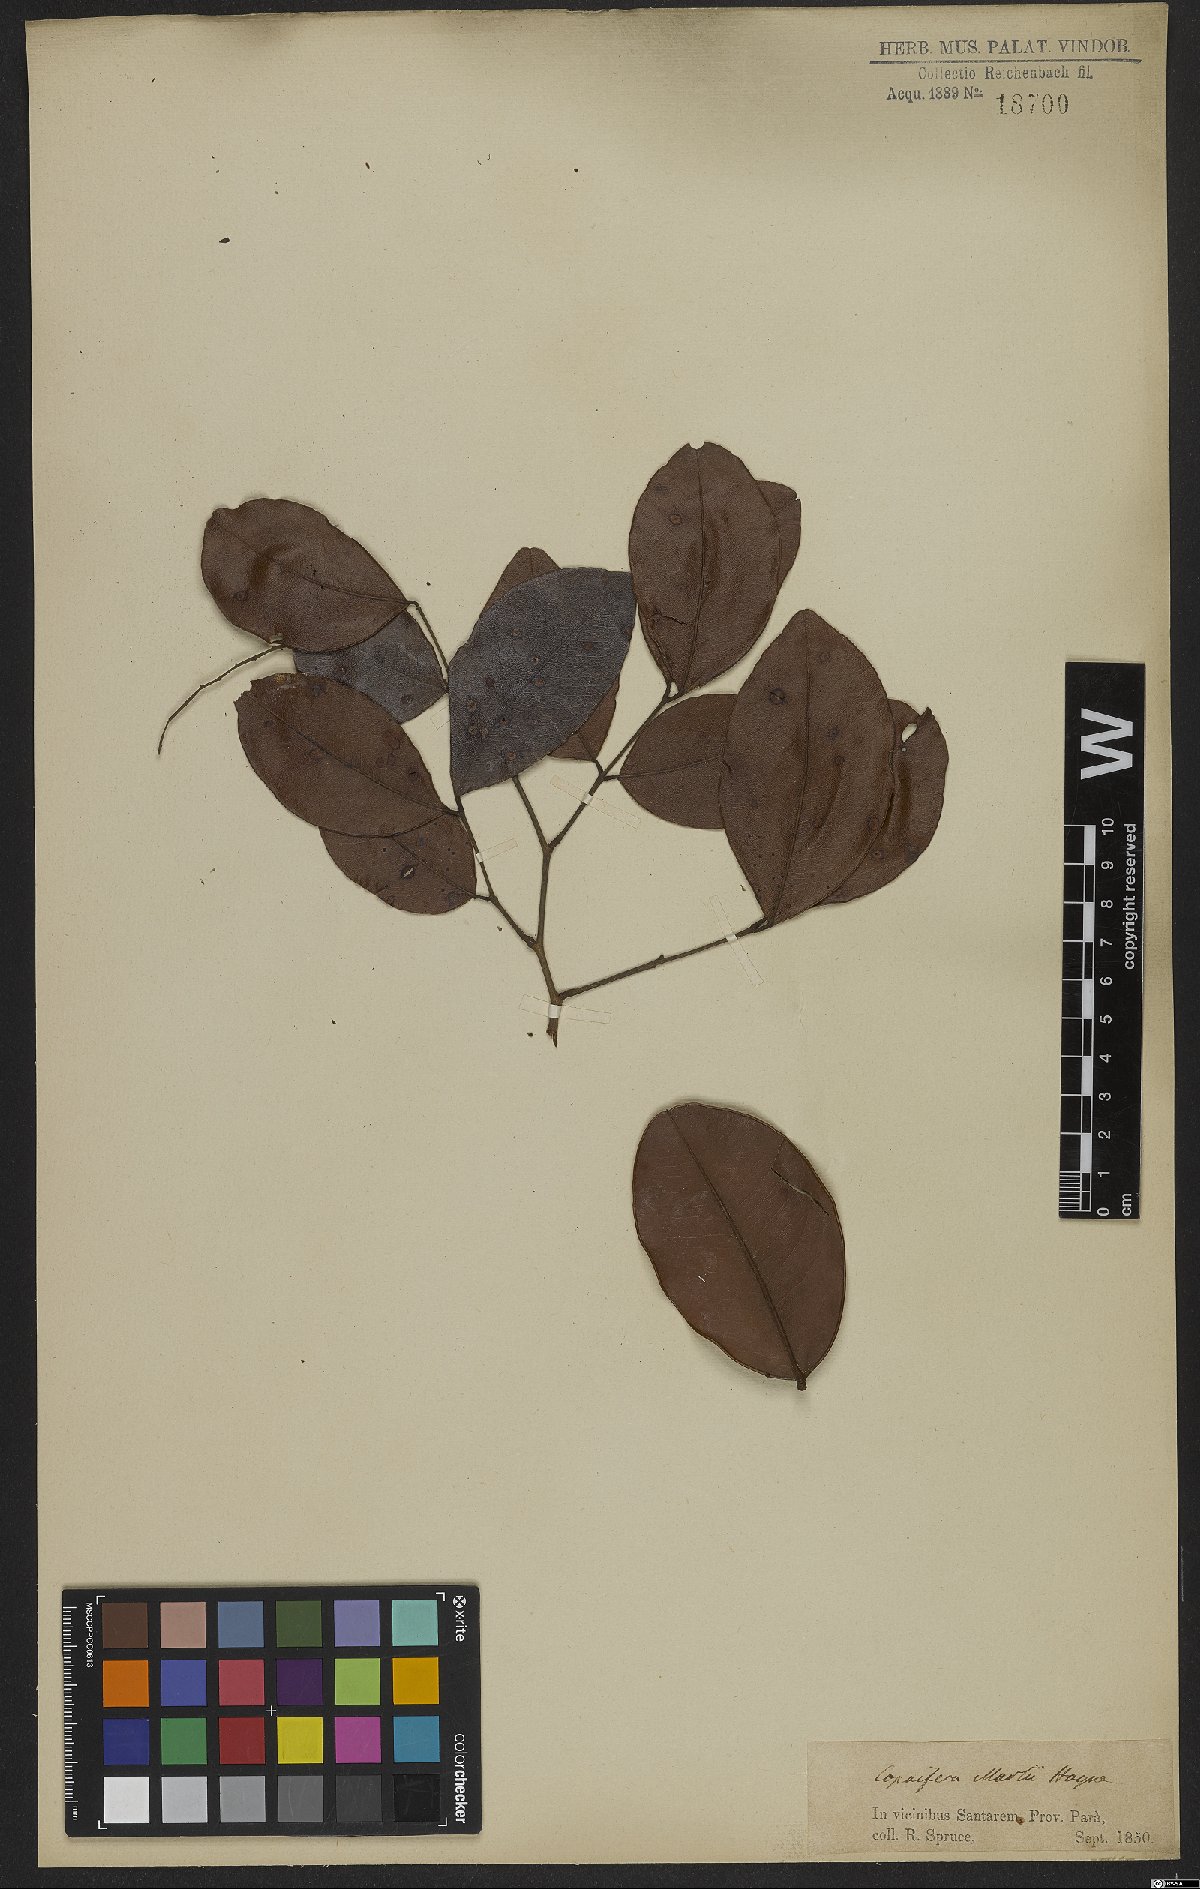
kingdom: Plantae
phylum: Tracheophyta
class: Magnoliopsida
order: Fabales
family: Fabaceae
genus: Copaifera
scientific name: Copaifera martii
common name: Copaiba
